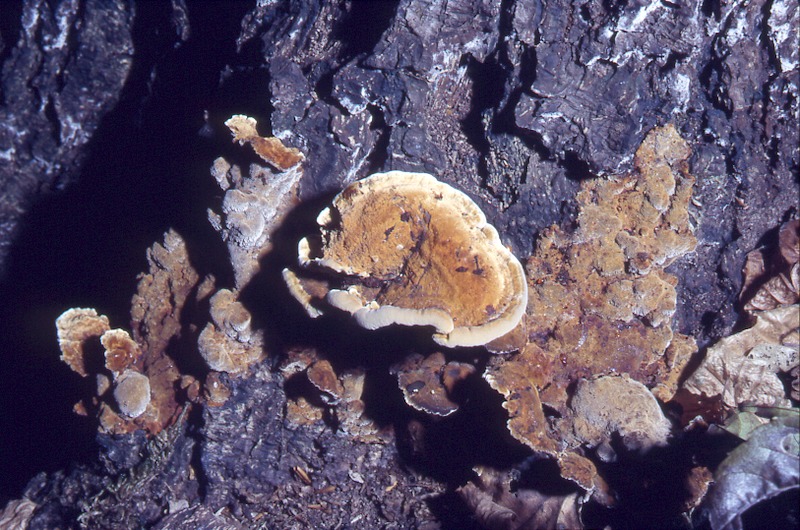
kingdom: Fungi
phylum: Basidiomycota
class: Agaricomycetes
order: Hymenochaetales
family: Hymenochaetaceae
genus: Xanthoporia
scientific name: Xanthoporia radiata
